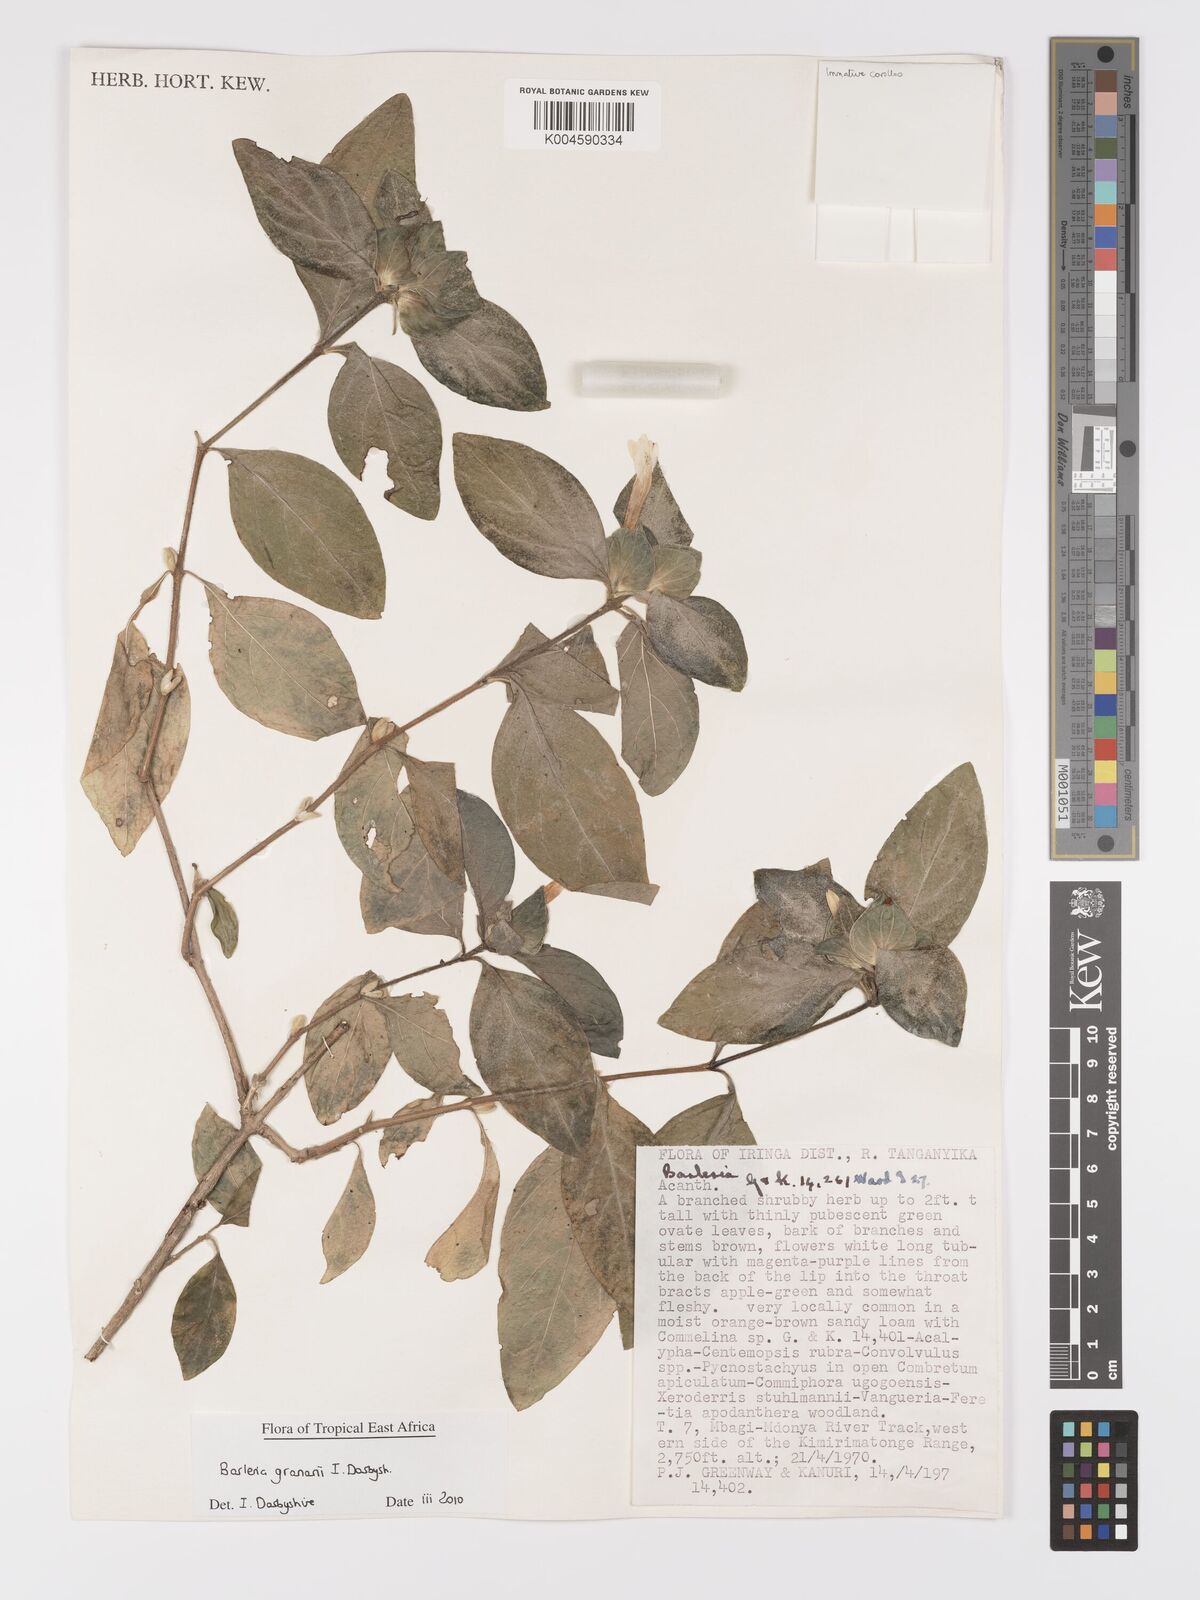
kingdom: Plantae
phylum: Tracheophyta
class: Magnoliopsida
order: Lamiales
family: Acanthaceae
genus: Barleria
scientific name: Barleria granarii
